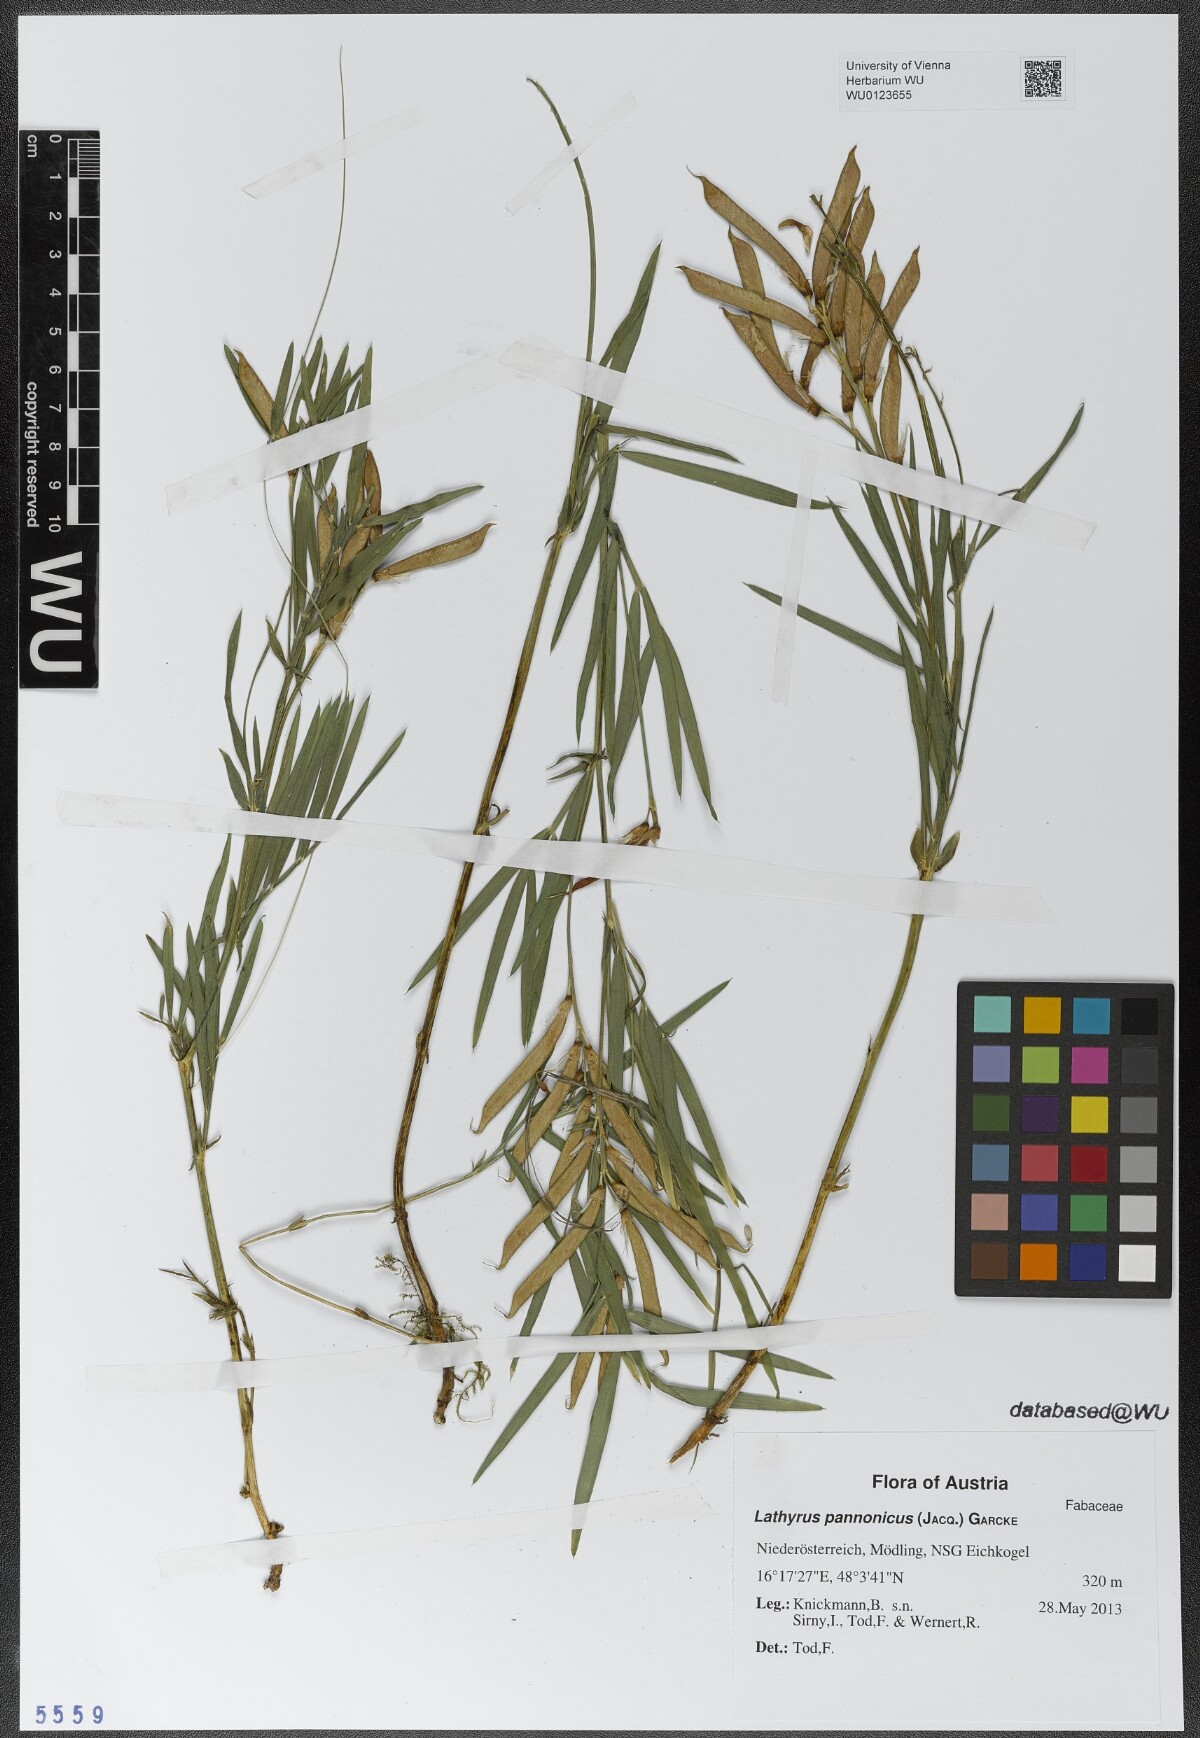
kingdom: Plantae
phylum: Tracheophyta
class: Magnoliopsida
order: Fabales
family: Fabaceae
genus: Lathyrus
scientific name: Lathyrus pannonicus
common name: Pea
